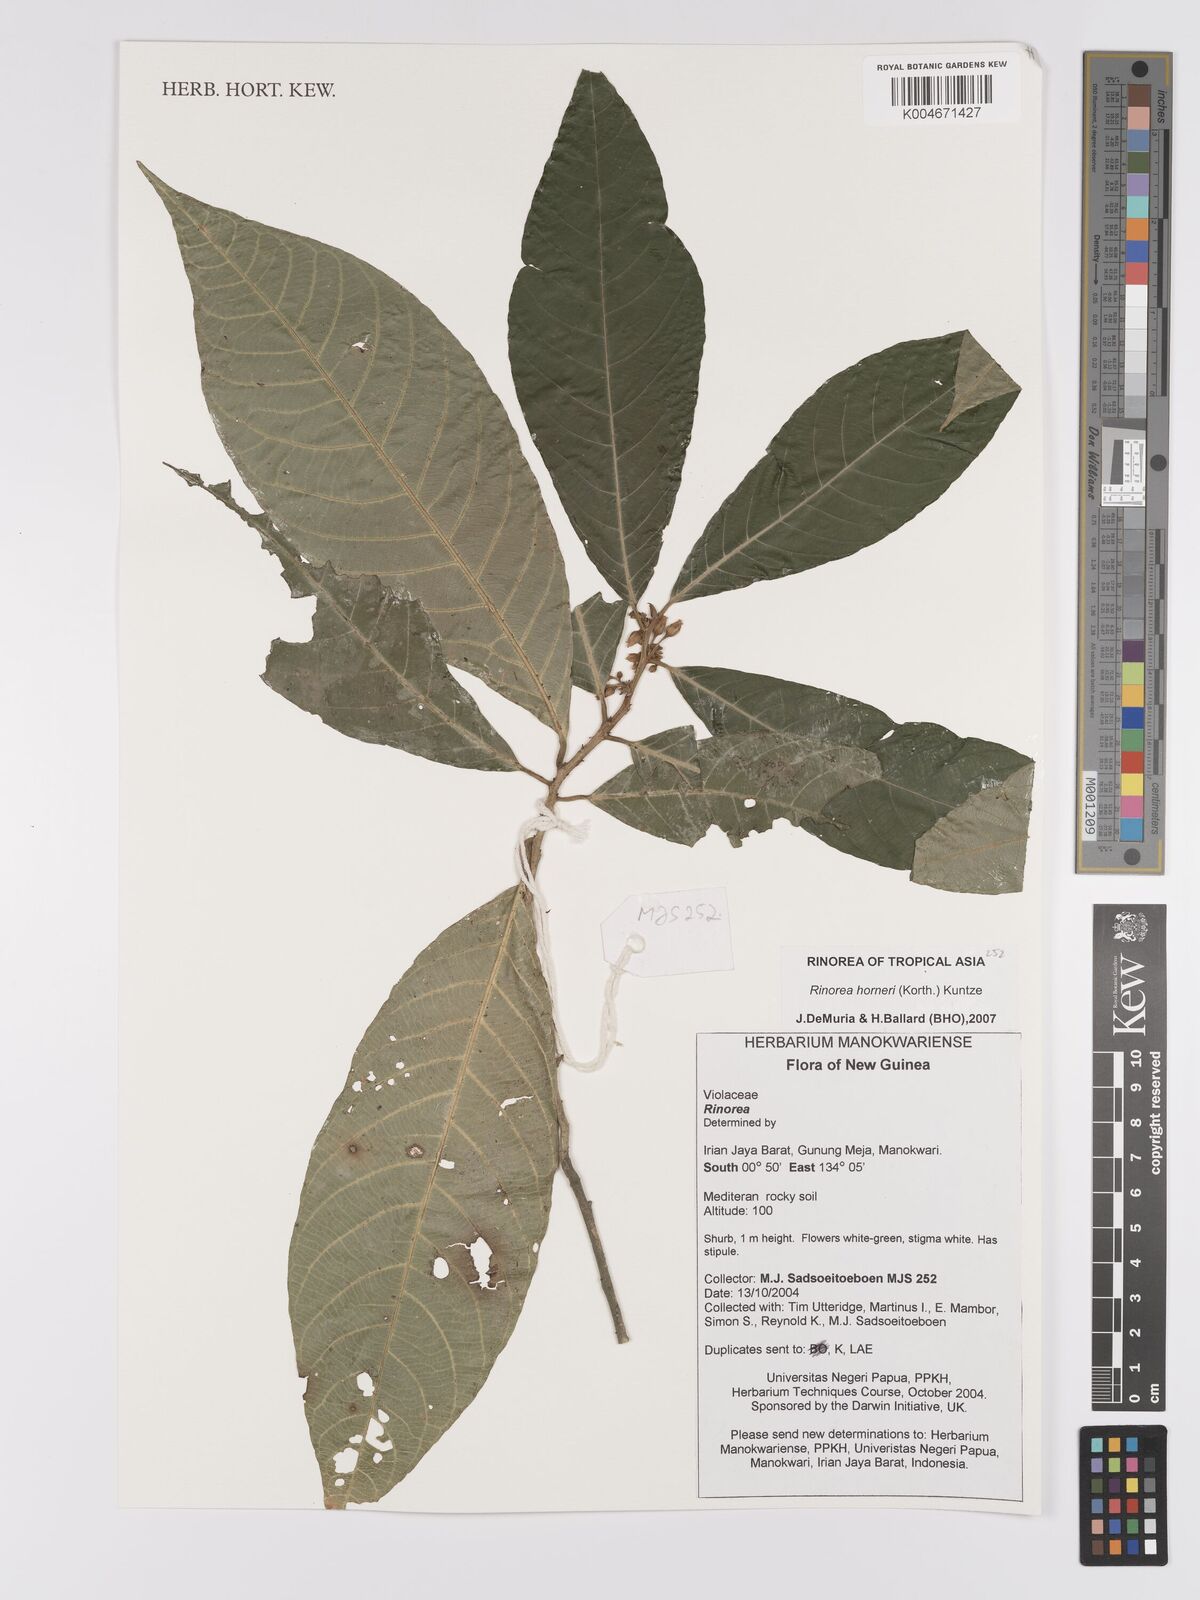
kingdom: Plantae
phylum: Tracheophyta
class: Magnoliopsida
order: Malpighiales
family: Violaceae
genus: Rinorea
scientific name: Rinorea horneri
